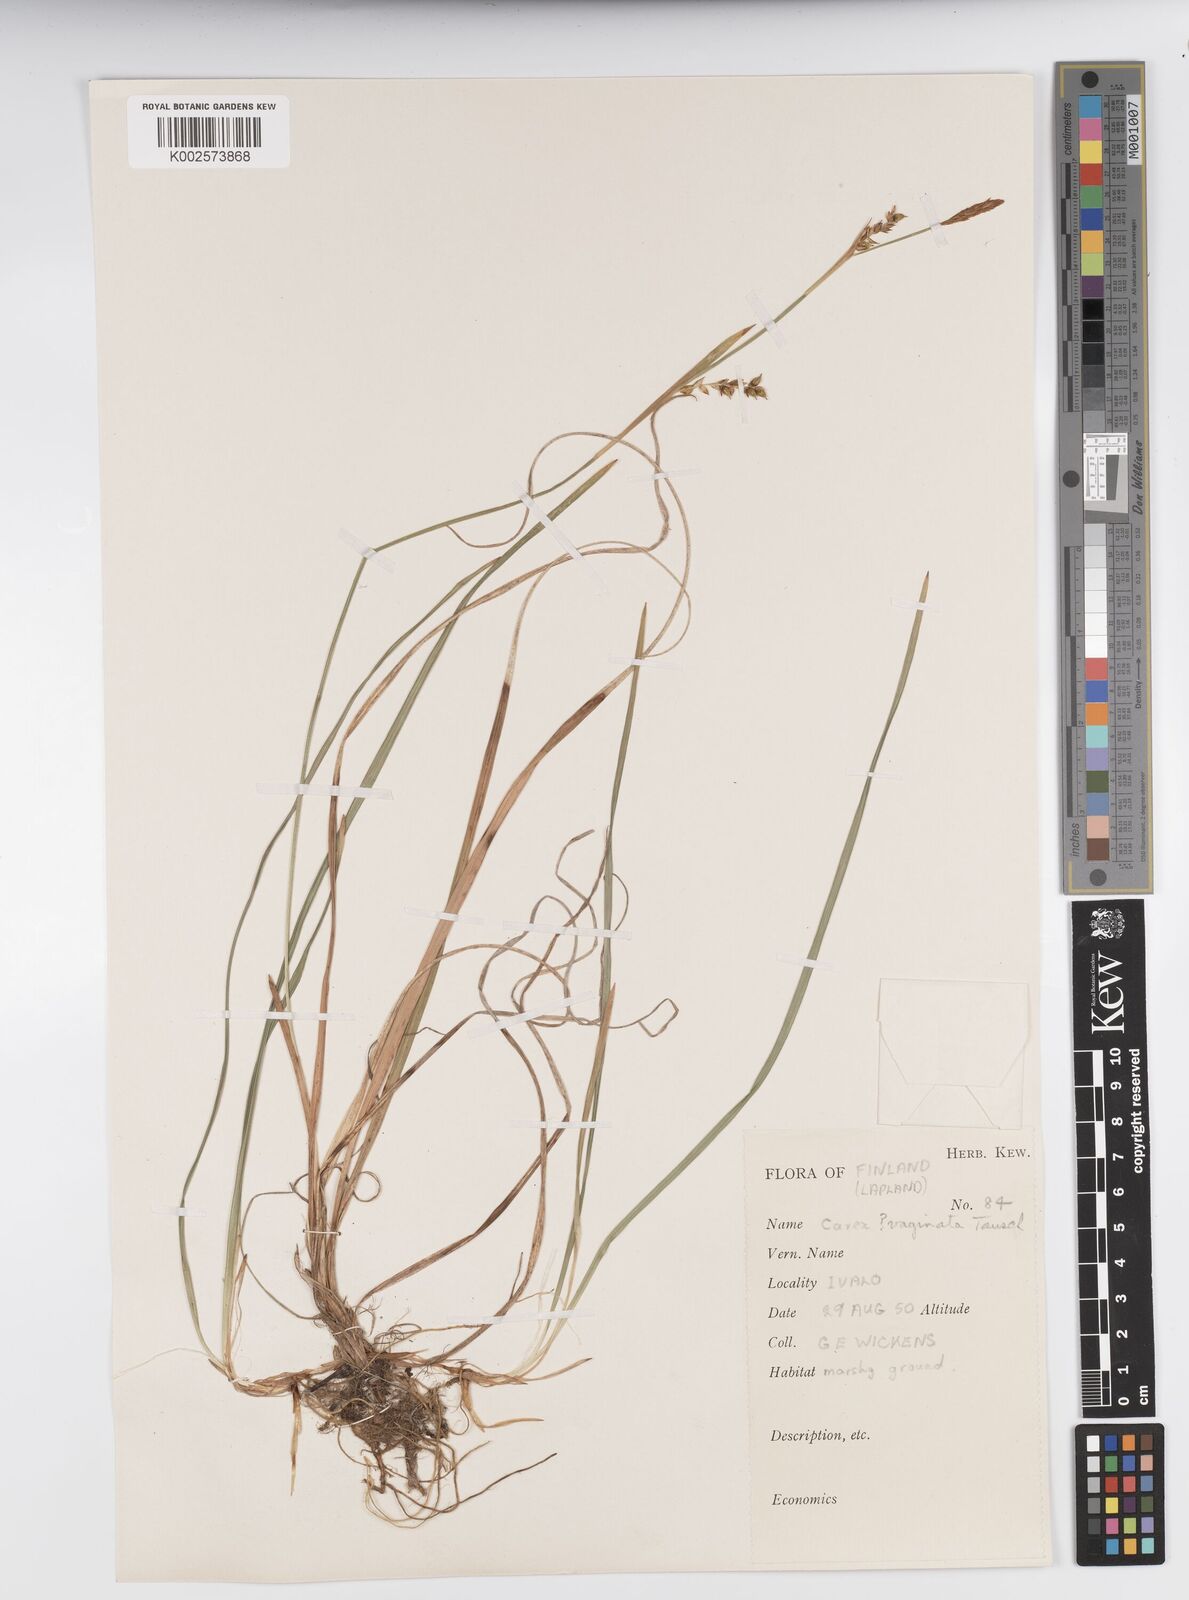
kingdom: Plantae
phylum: Tracheophyta
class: Liliopsida
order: Poales
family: Cyperaceae
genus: Carex
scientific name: Carex vaginata
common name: Sheathed sedge
